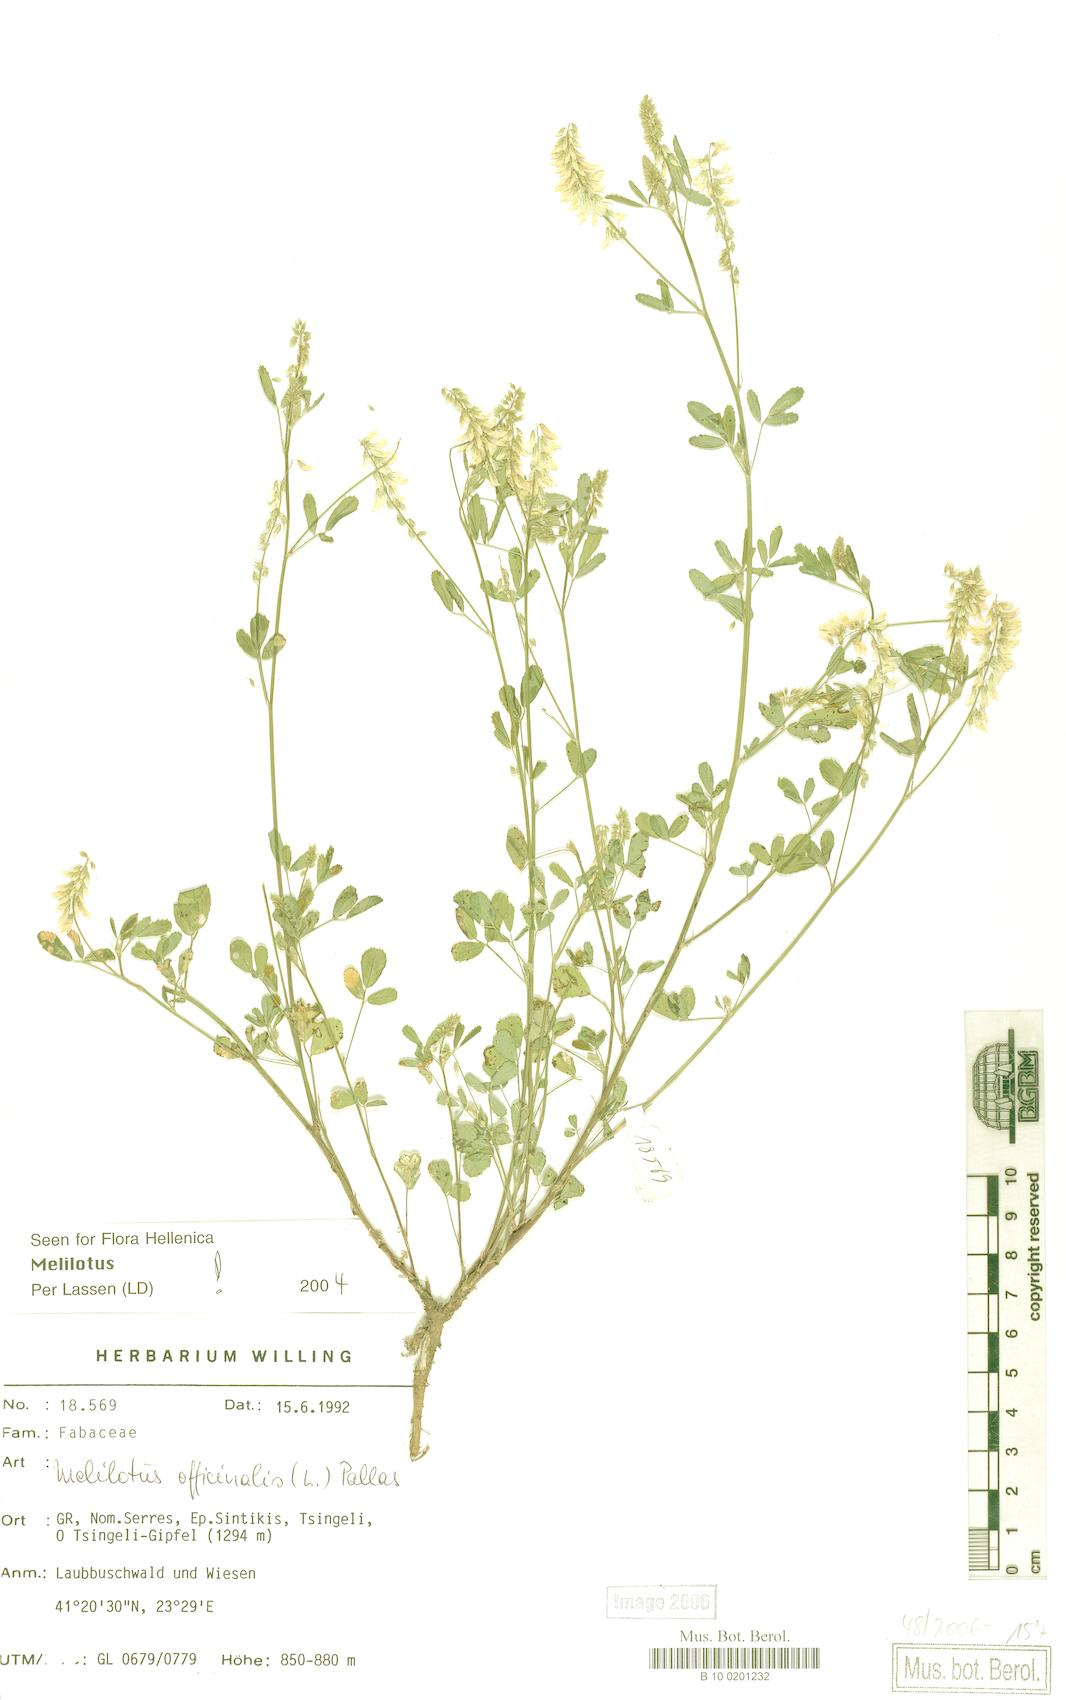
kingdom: Plantae
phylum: Tracheophyta
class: Magnoliopsida
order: Fabales
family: Fabaceae
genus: Melilotus
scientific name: Melilotus officinalis
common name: Sweetclover
